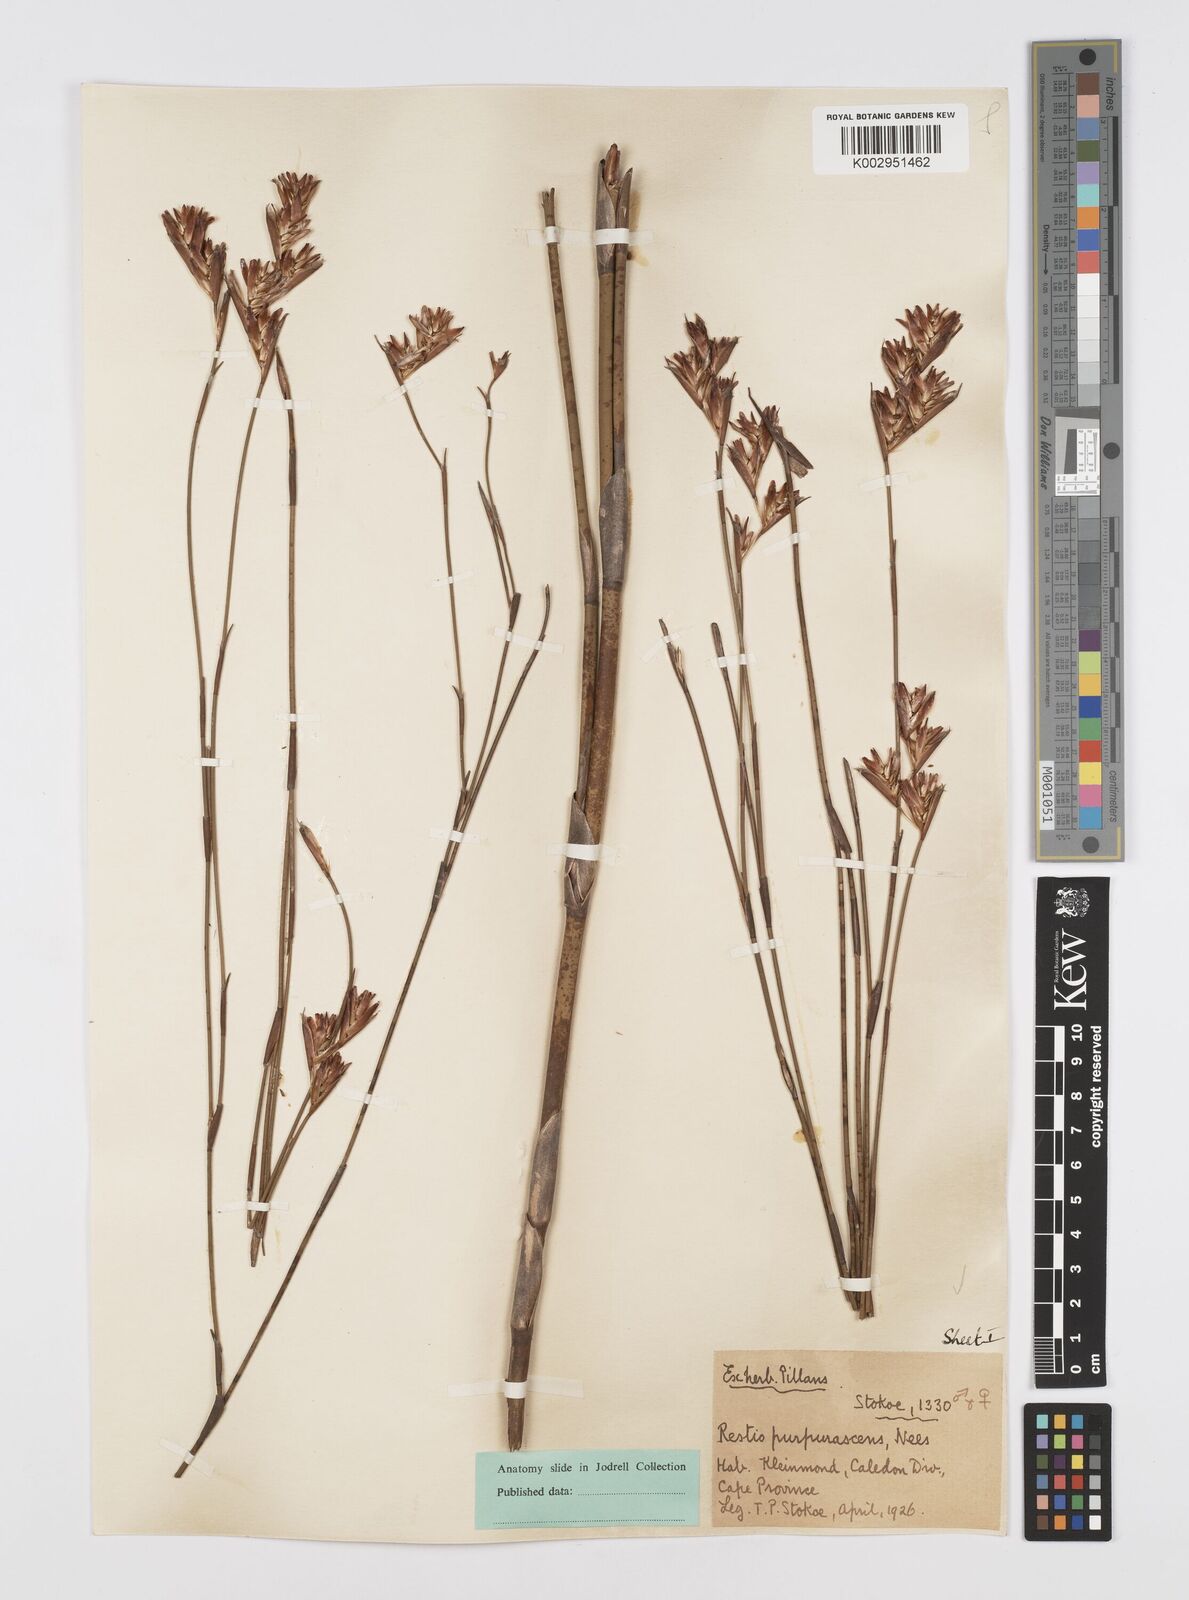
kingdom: Plantae
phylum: Tracheophyta
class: Liliopsida
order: Poales
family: Restionaceae
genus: Restio
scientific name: Restio purpurascens
